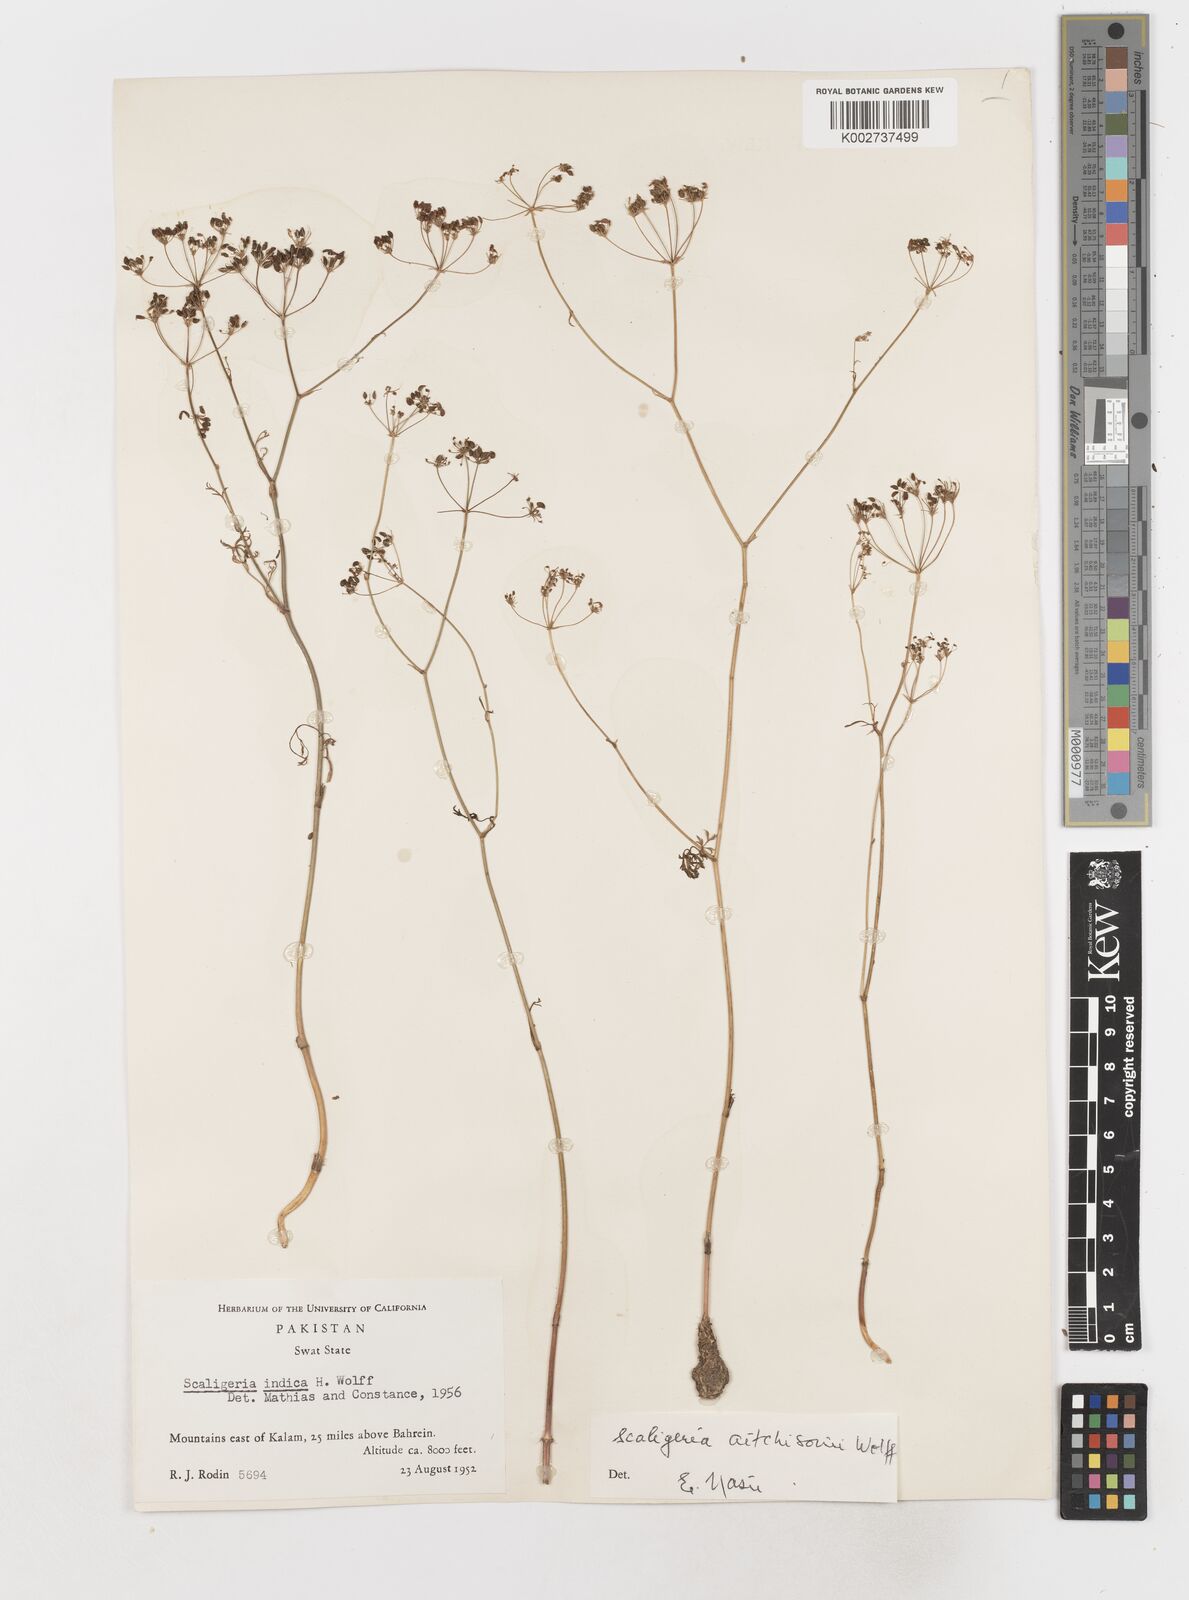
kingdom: Plantae
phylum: Tracheophyta
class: Magnoliopsida
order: Apiales
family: Apiaceae
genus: Scaligeria
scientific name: Scaligeria hirtula
